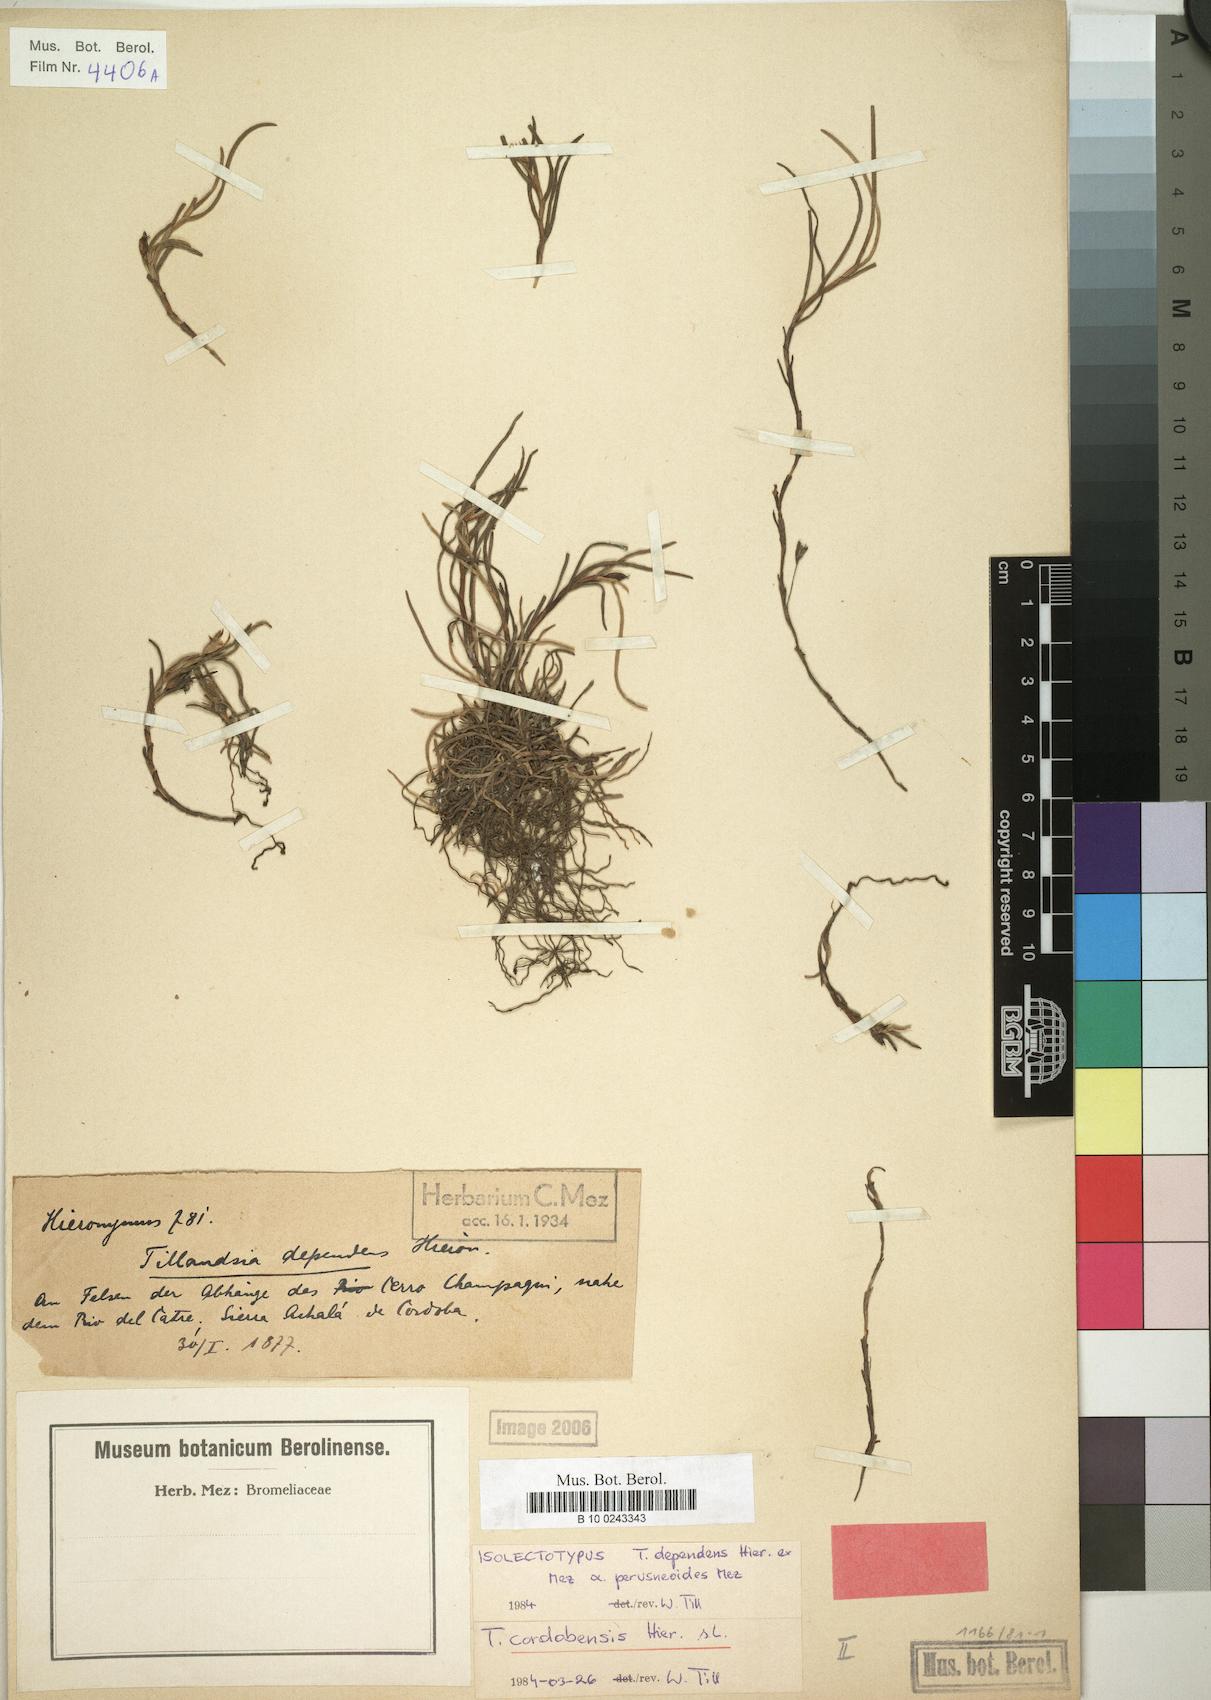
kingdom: Plantae
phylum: Tracheophyta
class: Liliopsida
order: Poales
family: Bromeliaceae
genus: Tillandsia
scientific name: Tillandsia virescens
